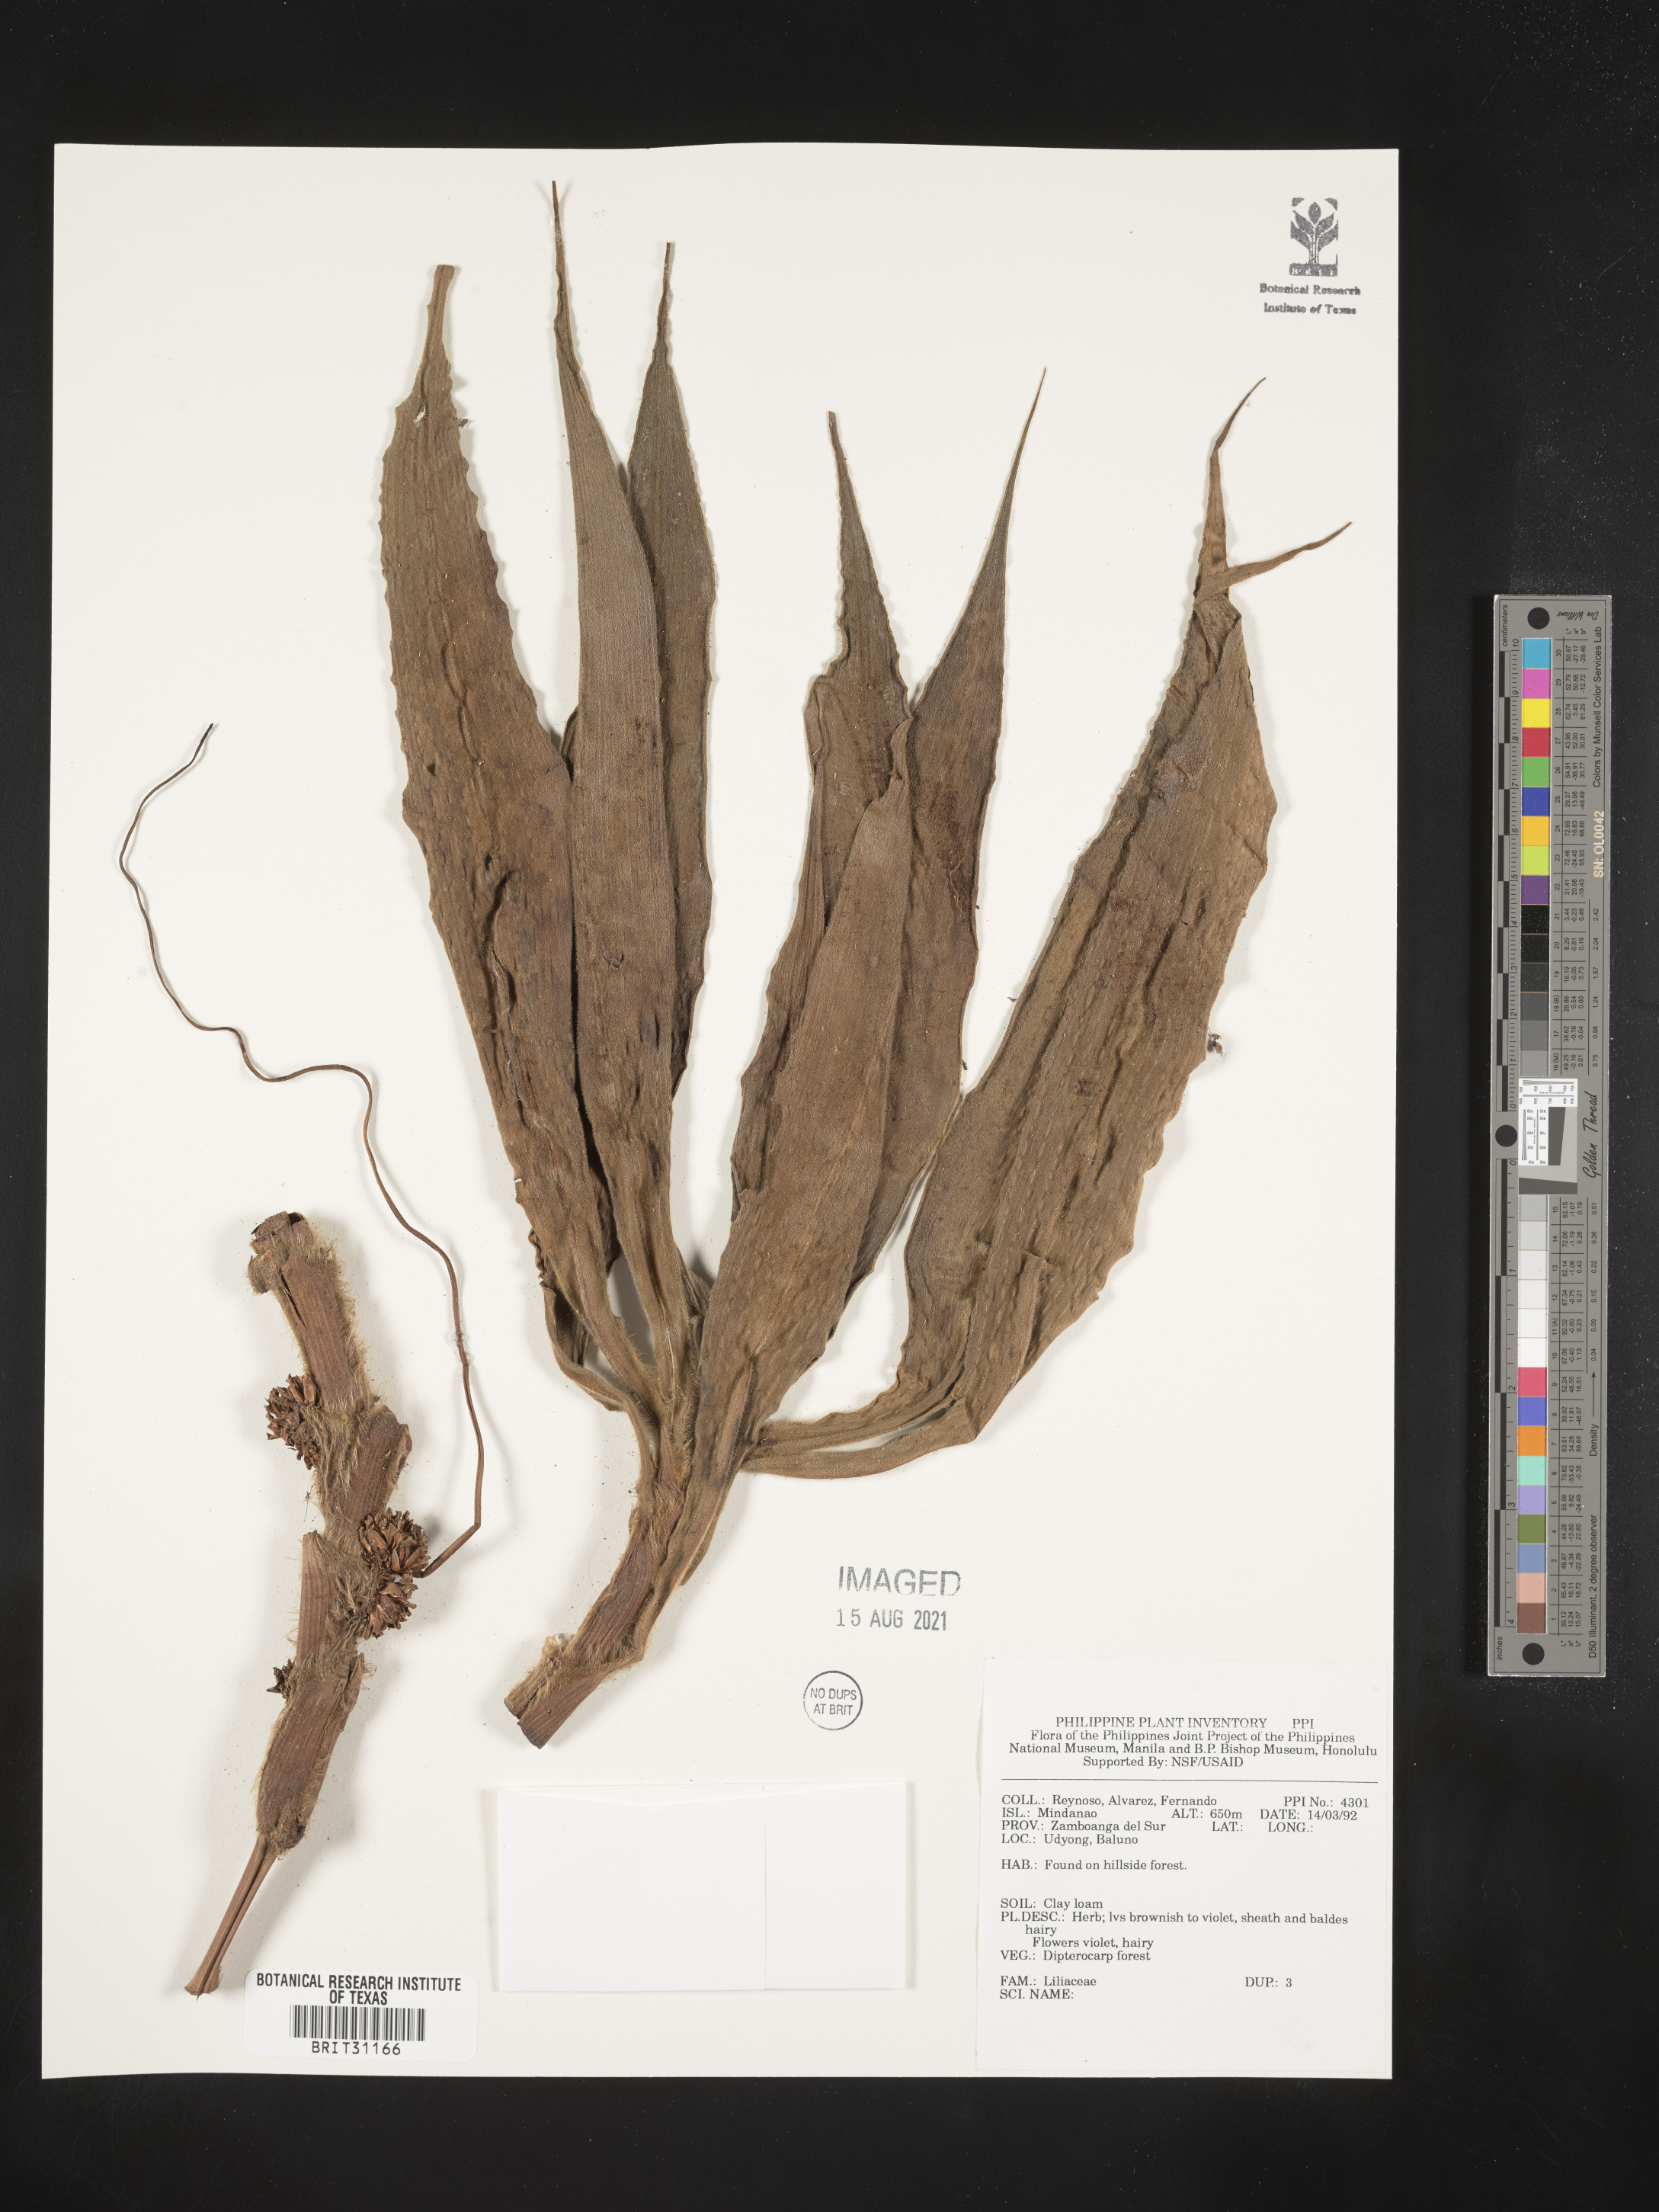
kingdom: Plantae
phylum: Tracheophyta
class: Liliopsida
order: Liliales
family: Liliaceae
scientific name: Liliaceae
